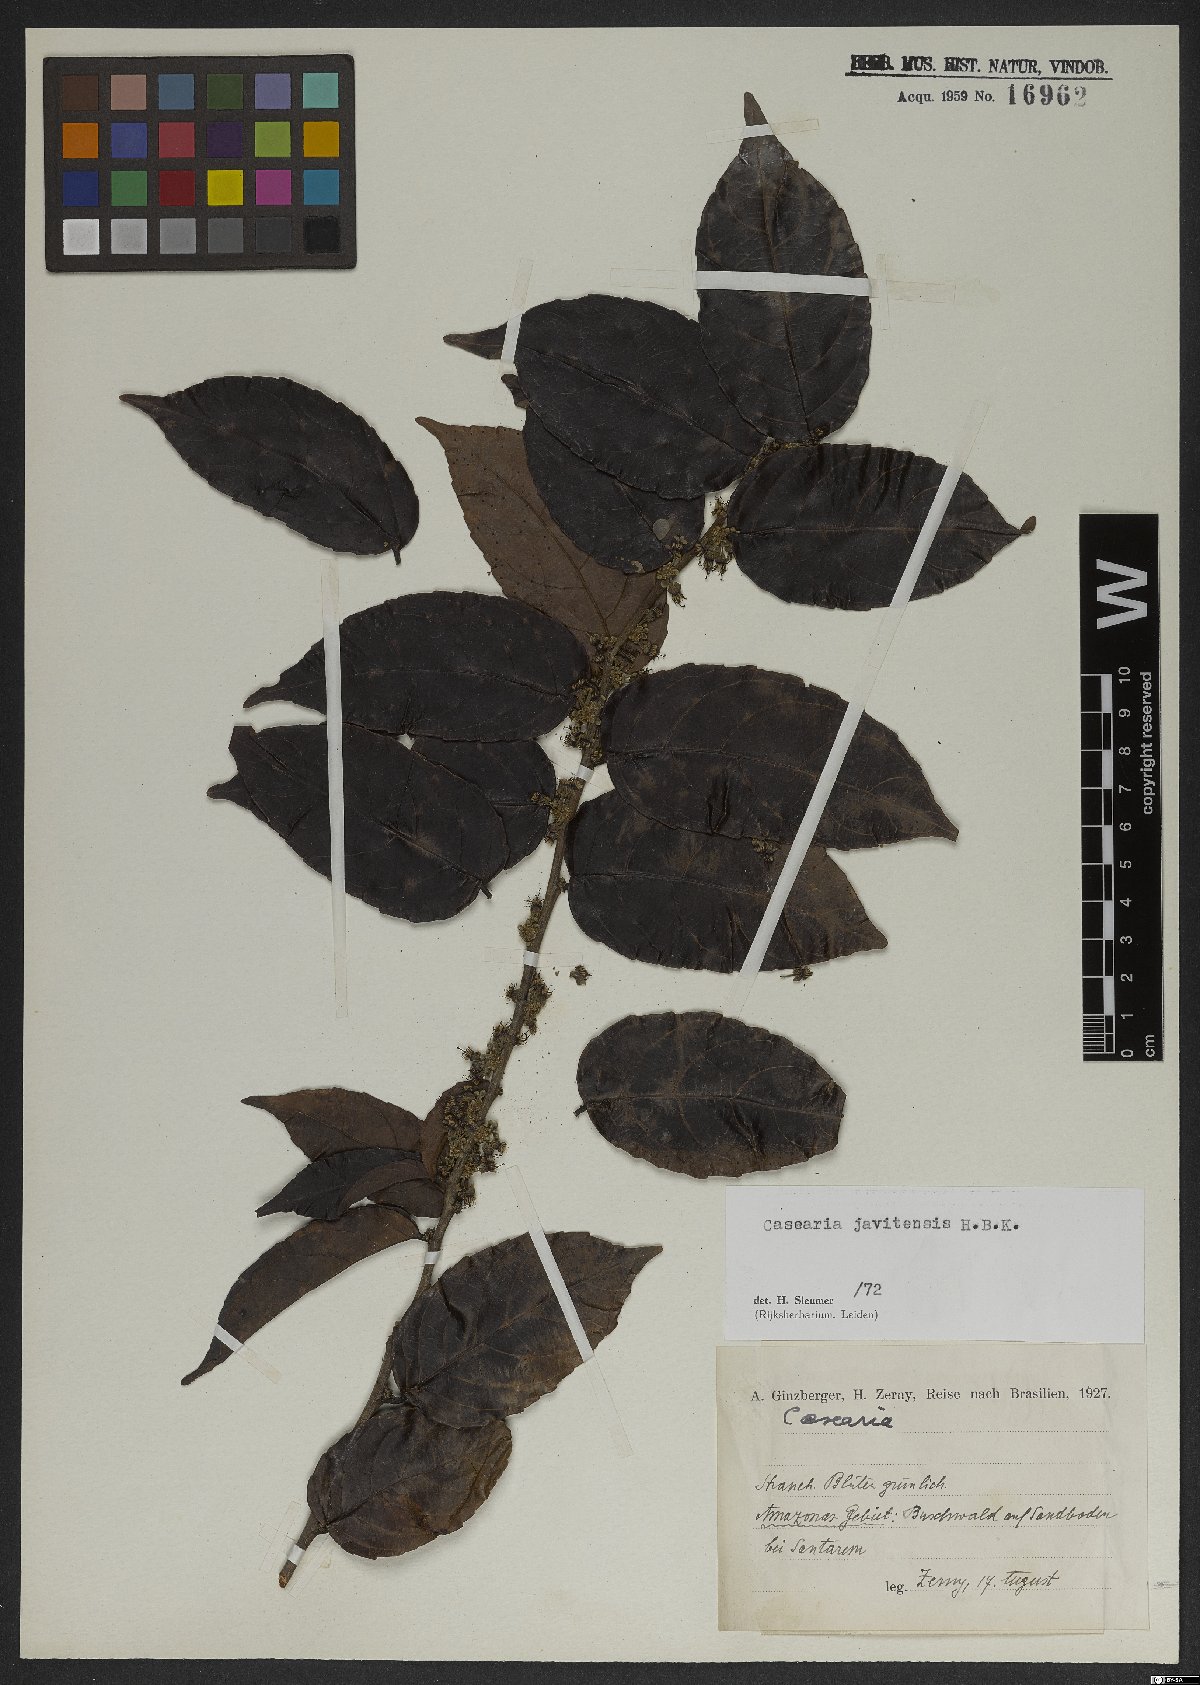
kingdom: Plantae
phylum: Tracheophyta
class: Magnoliopsida
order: Malpighiales
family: Salicaceae
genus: Piparea
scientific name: Piparea multiflora
